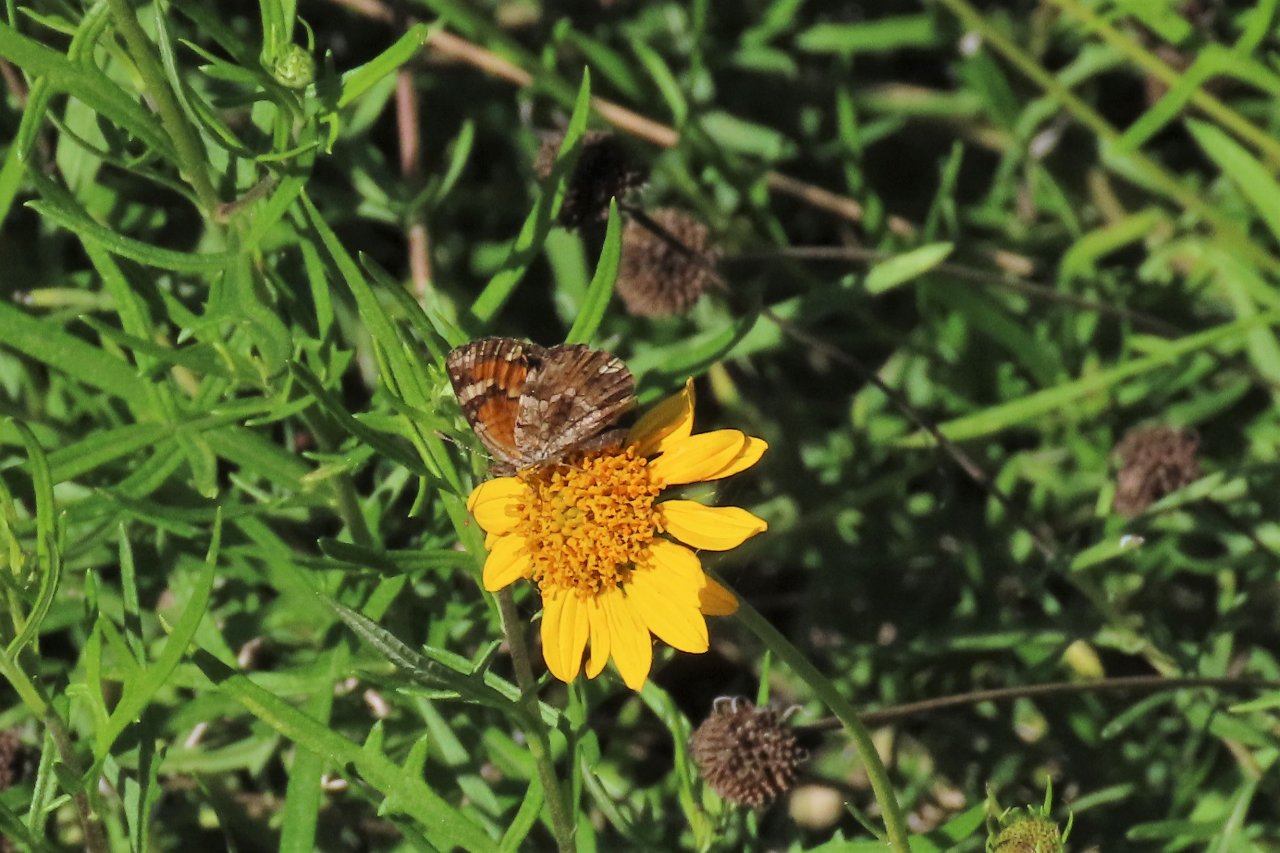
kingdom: Animalia
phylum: Arthropoda
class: Insecta
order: Lepidoptera
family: Nymphalidae
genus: Phyciodes
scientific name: Phyciodes phaon
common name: Phaon Crescent
